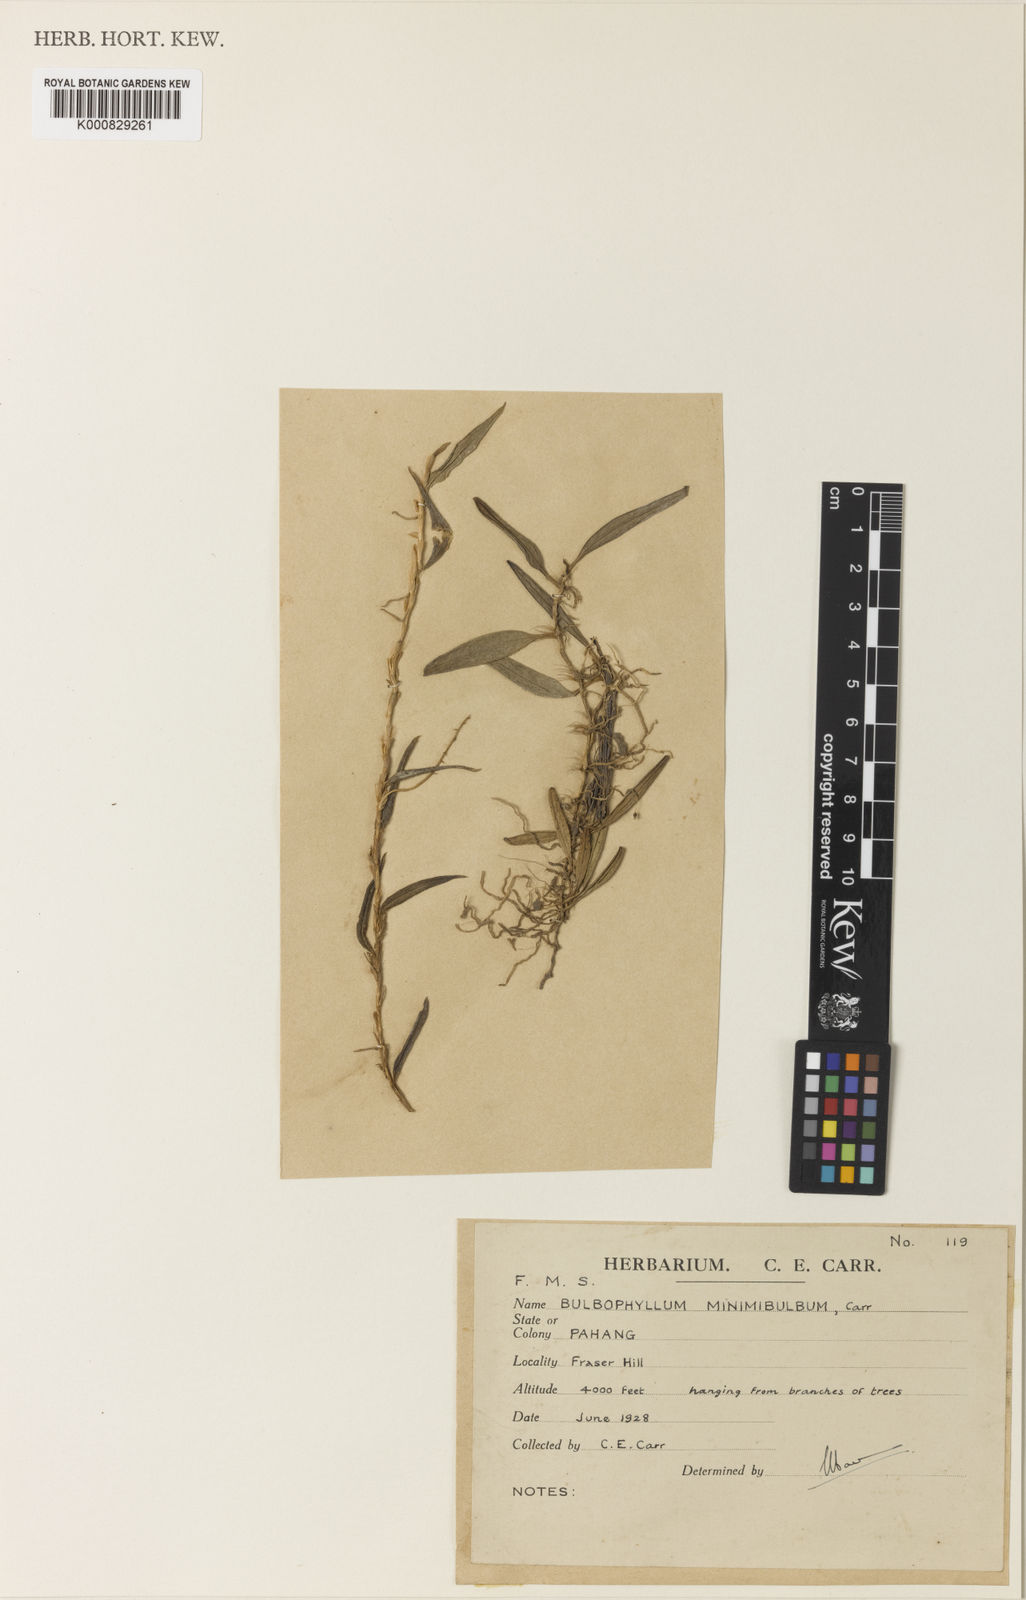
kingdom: Plantae
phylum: Tracheophyta
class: Liliopsida
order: Asparagales
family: Orchidaceae
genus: Bulbophyllum
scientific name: Bulbophyllum rhizomatosum
